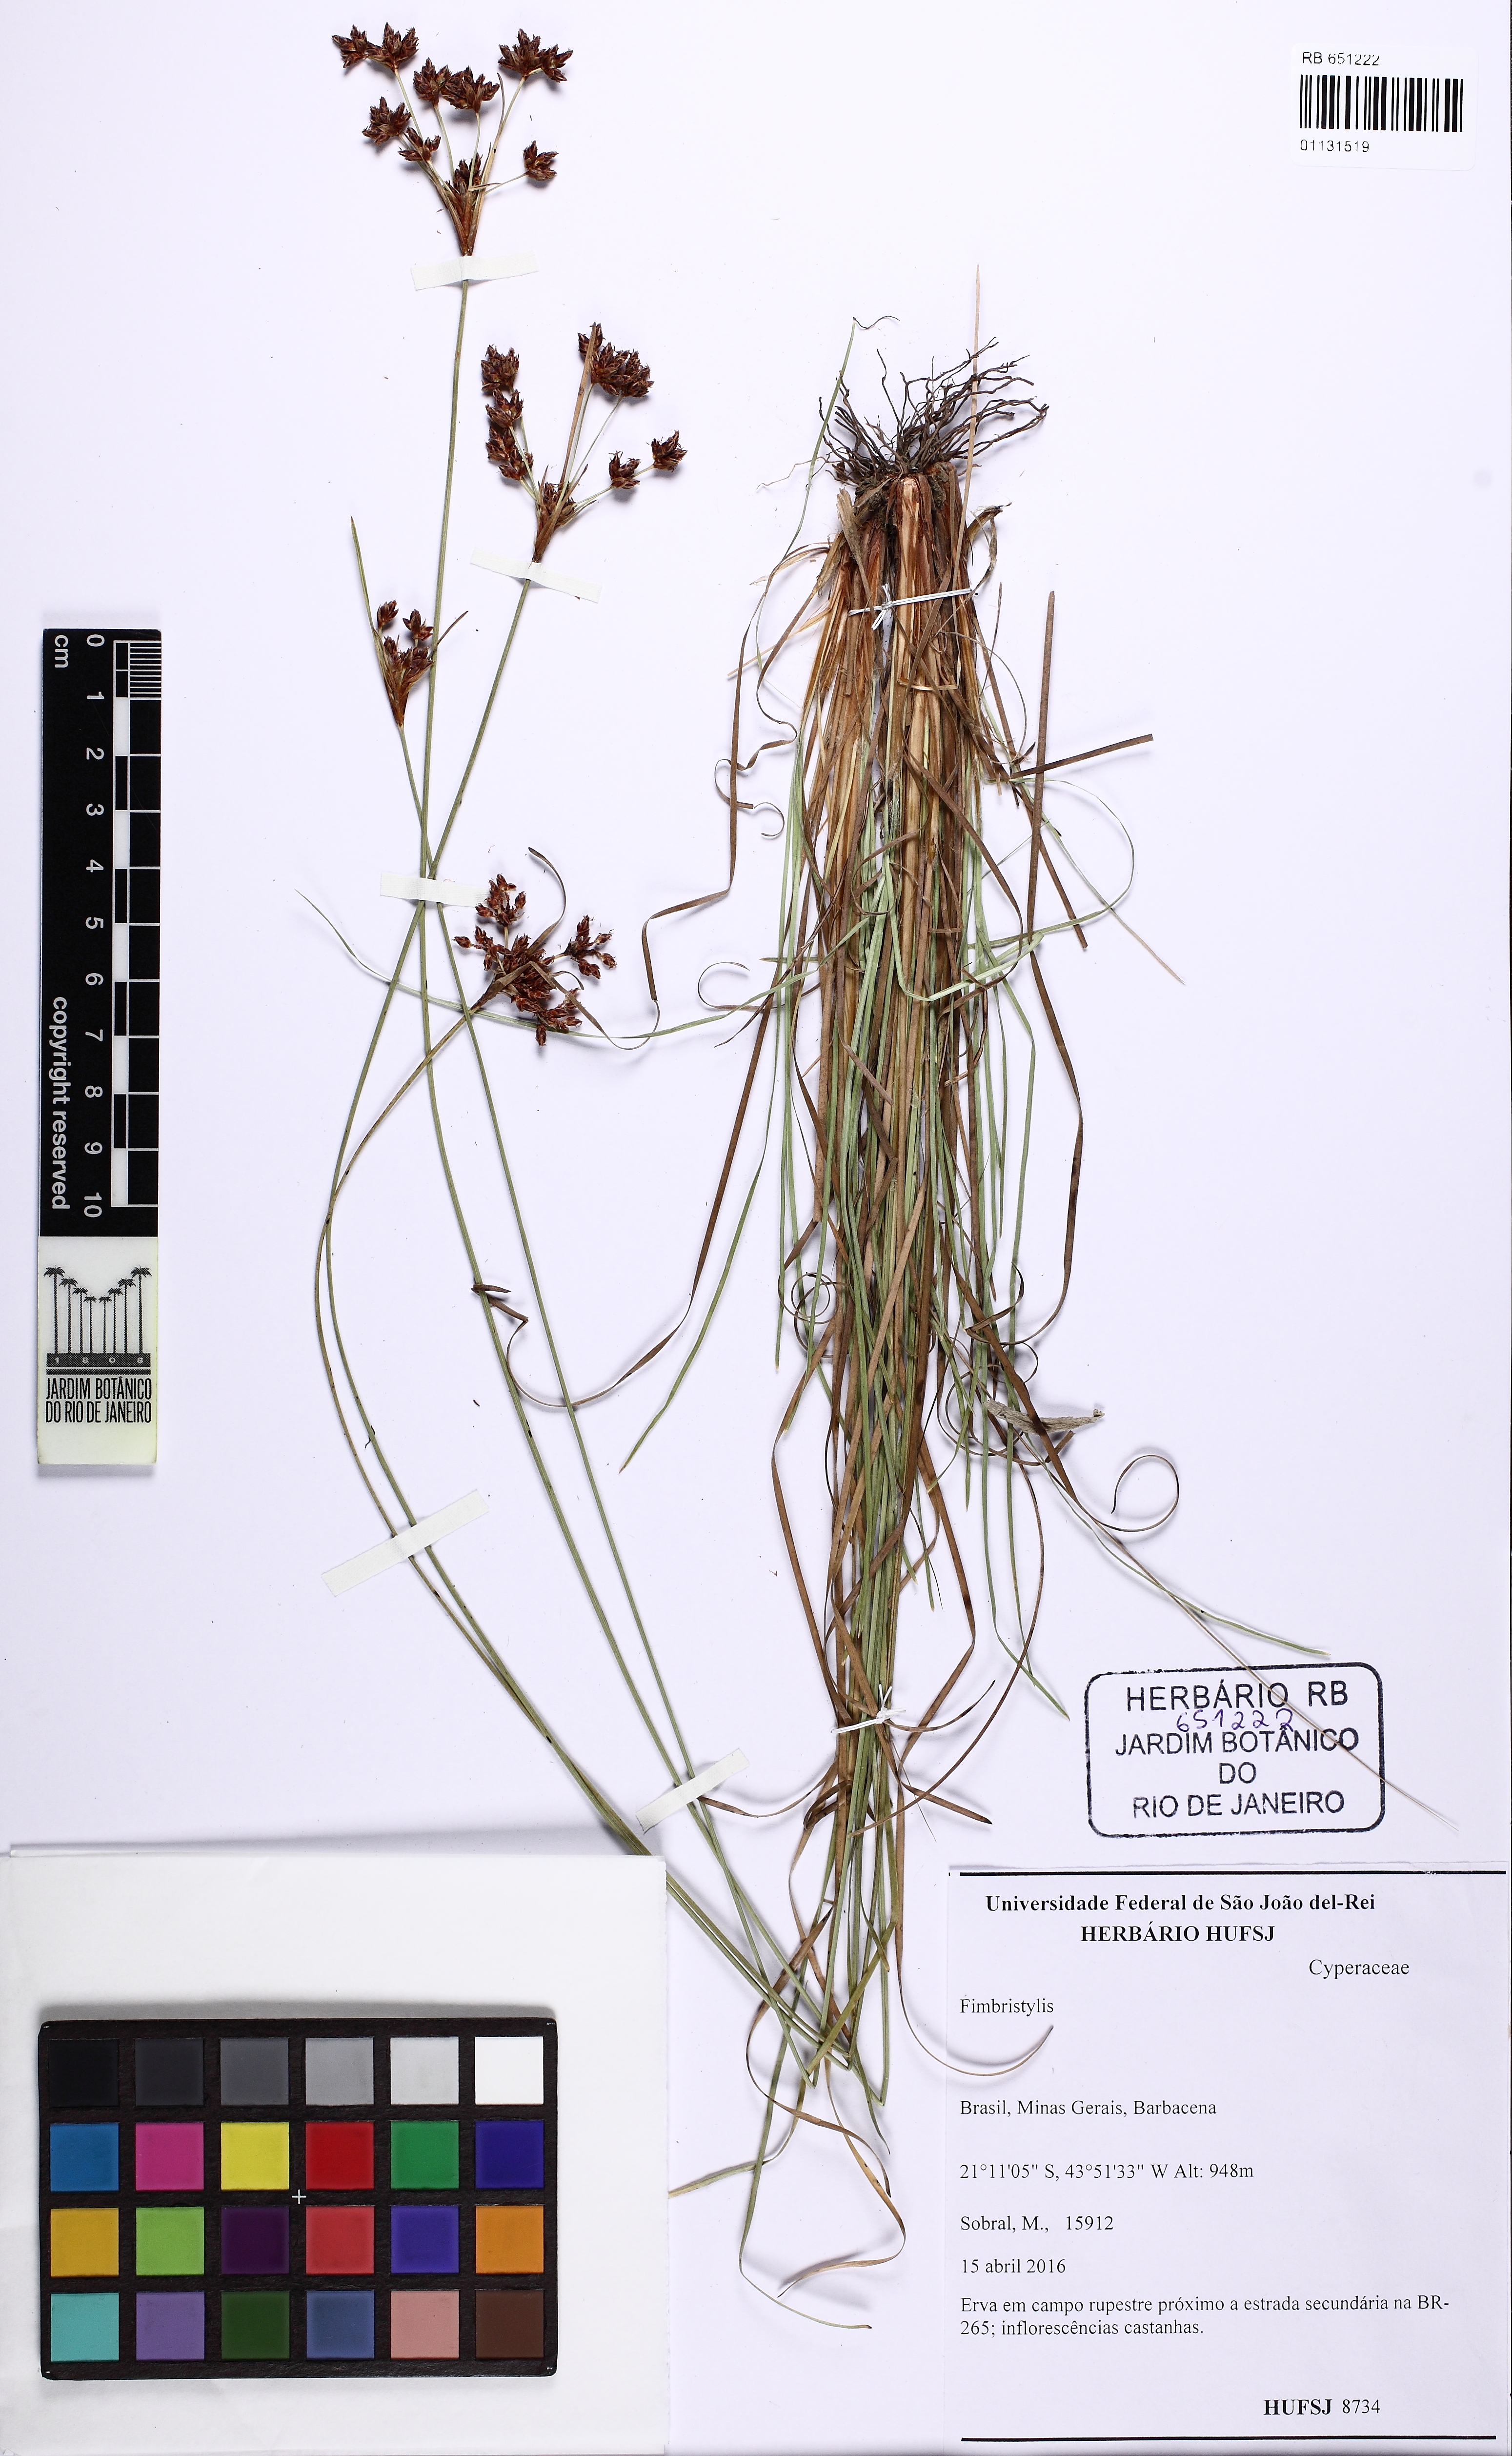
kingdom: Plantae
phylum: Tracheophyta
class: Liliopsida
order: Poales
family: Cyperaceae
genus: Bulbostylis
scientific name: Bulbostylis consanguinea
